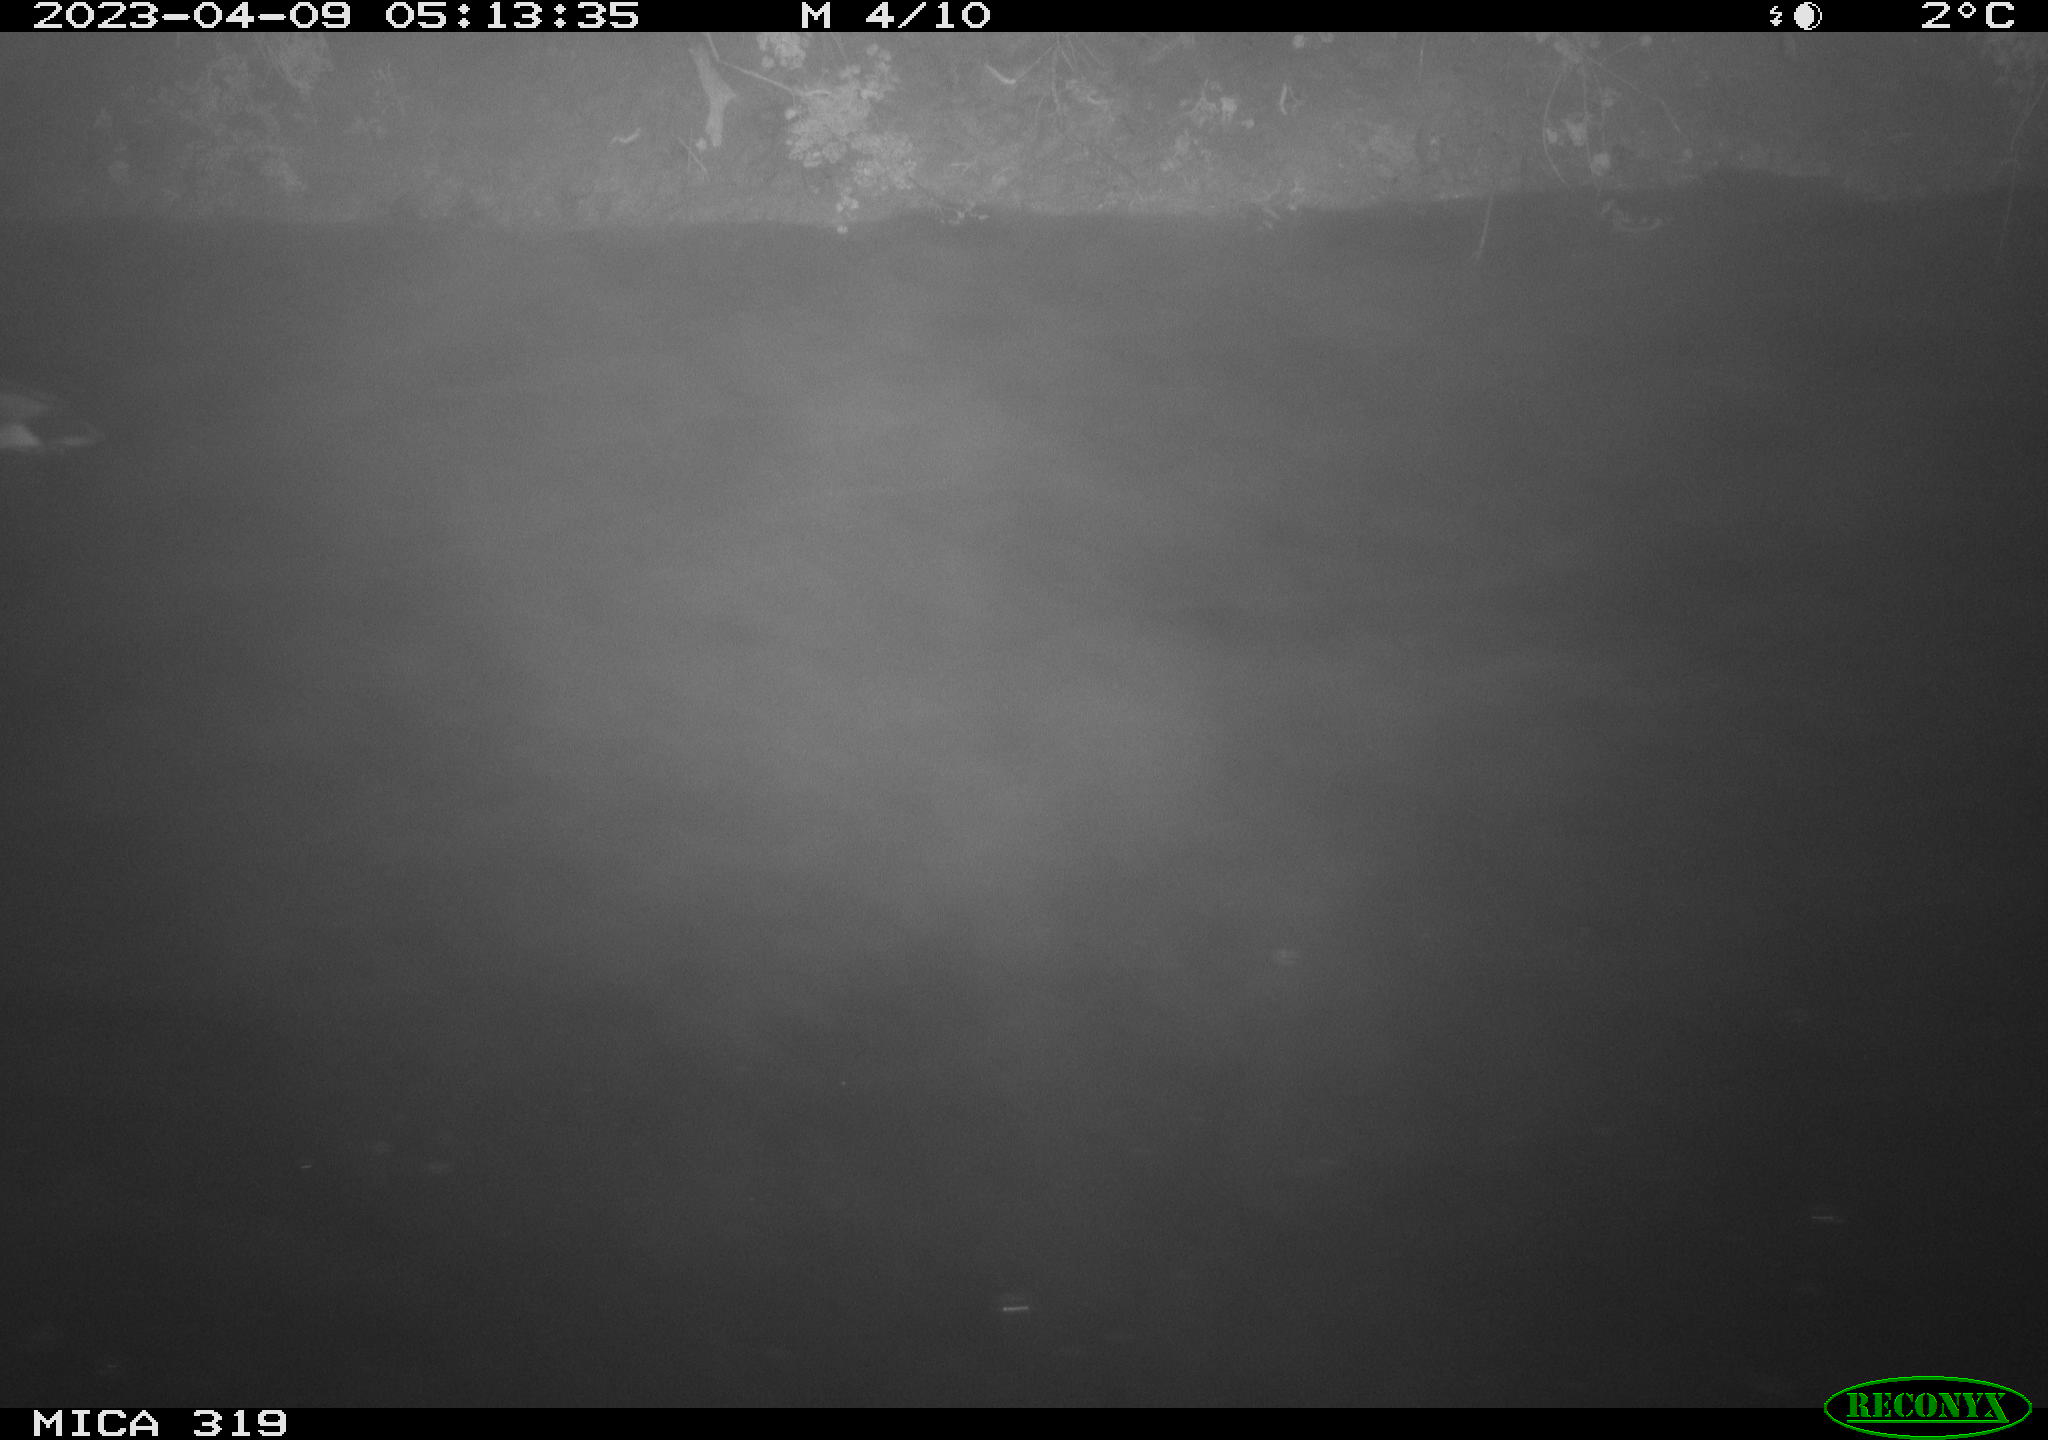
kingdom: Animalia
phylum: Chordata
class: Aves
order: Anseriformes
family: Anatidae
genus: Anas
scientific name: Anas
